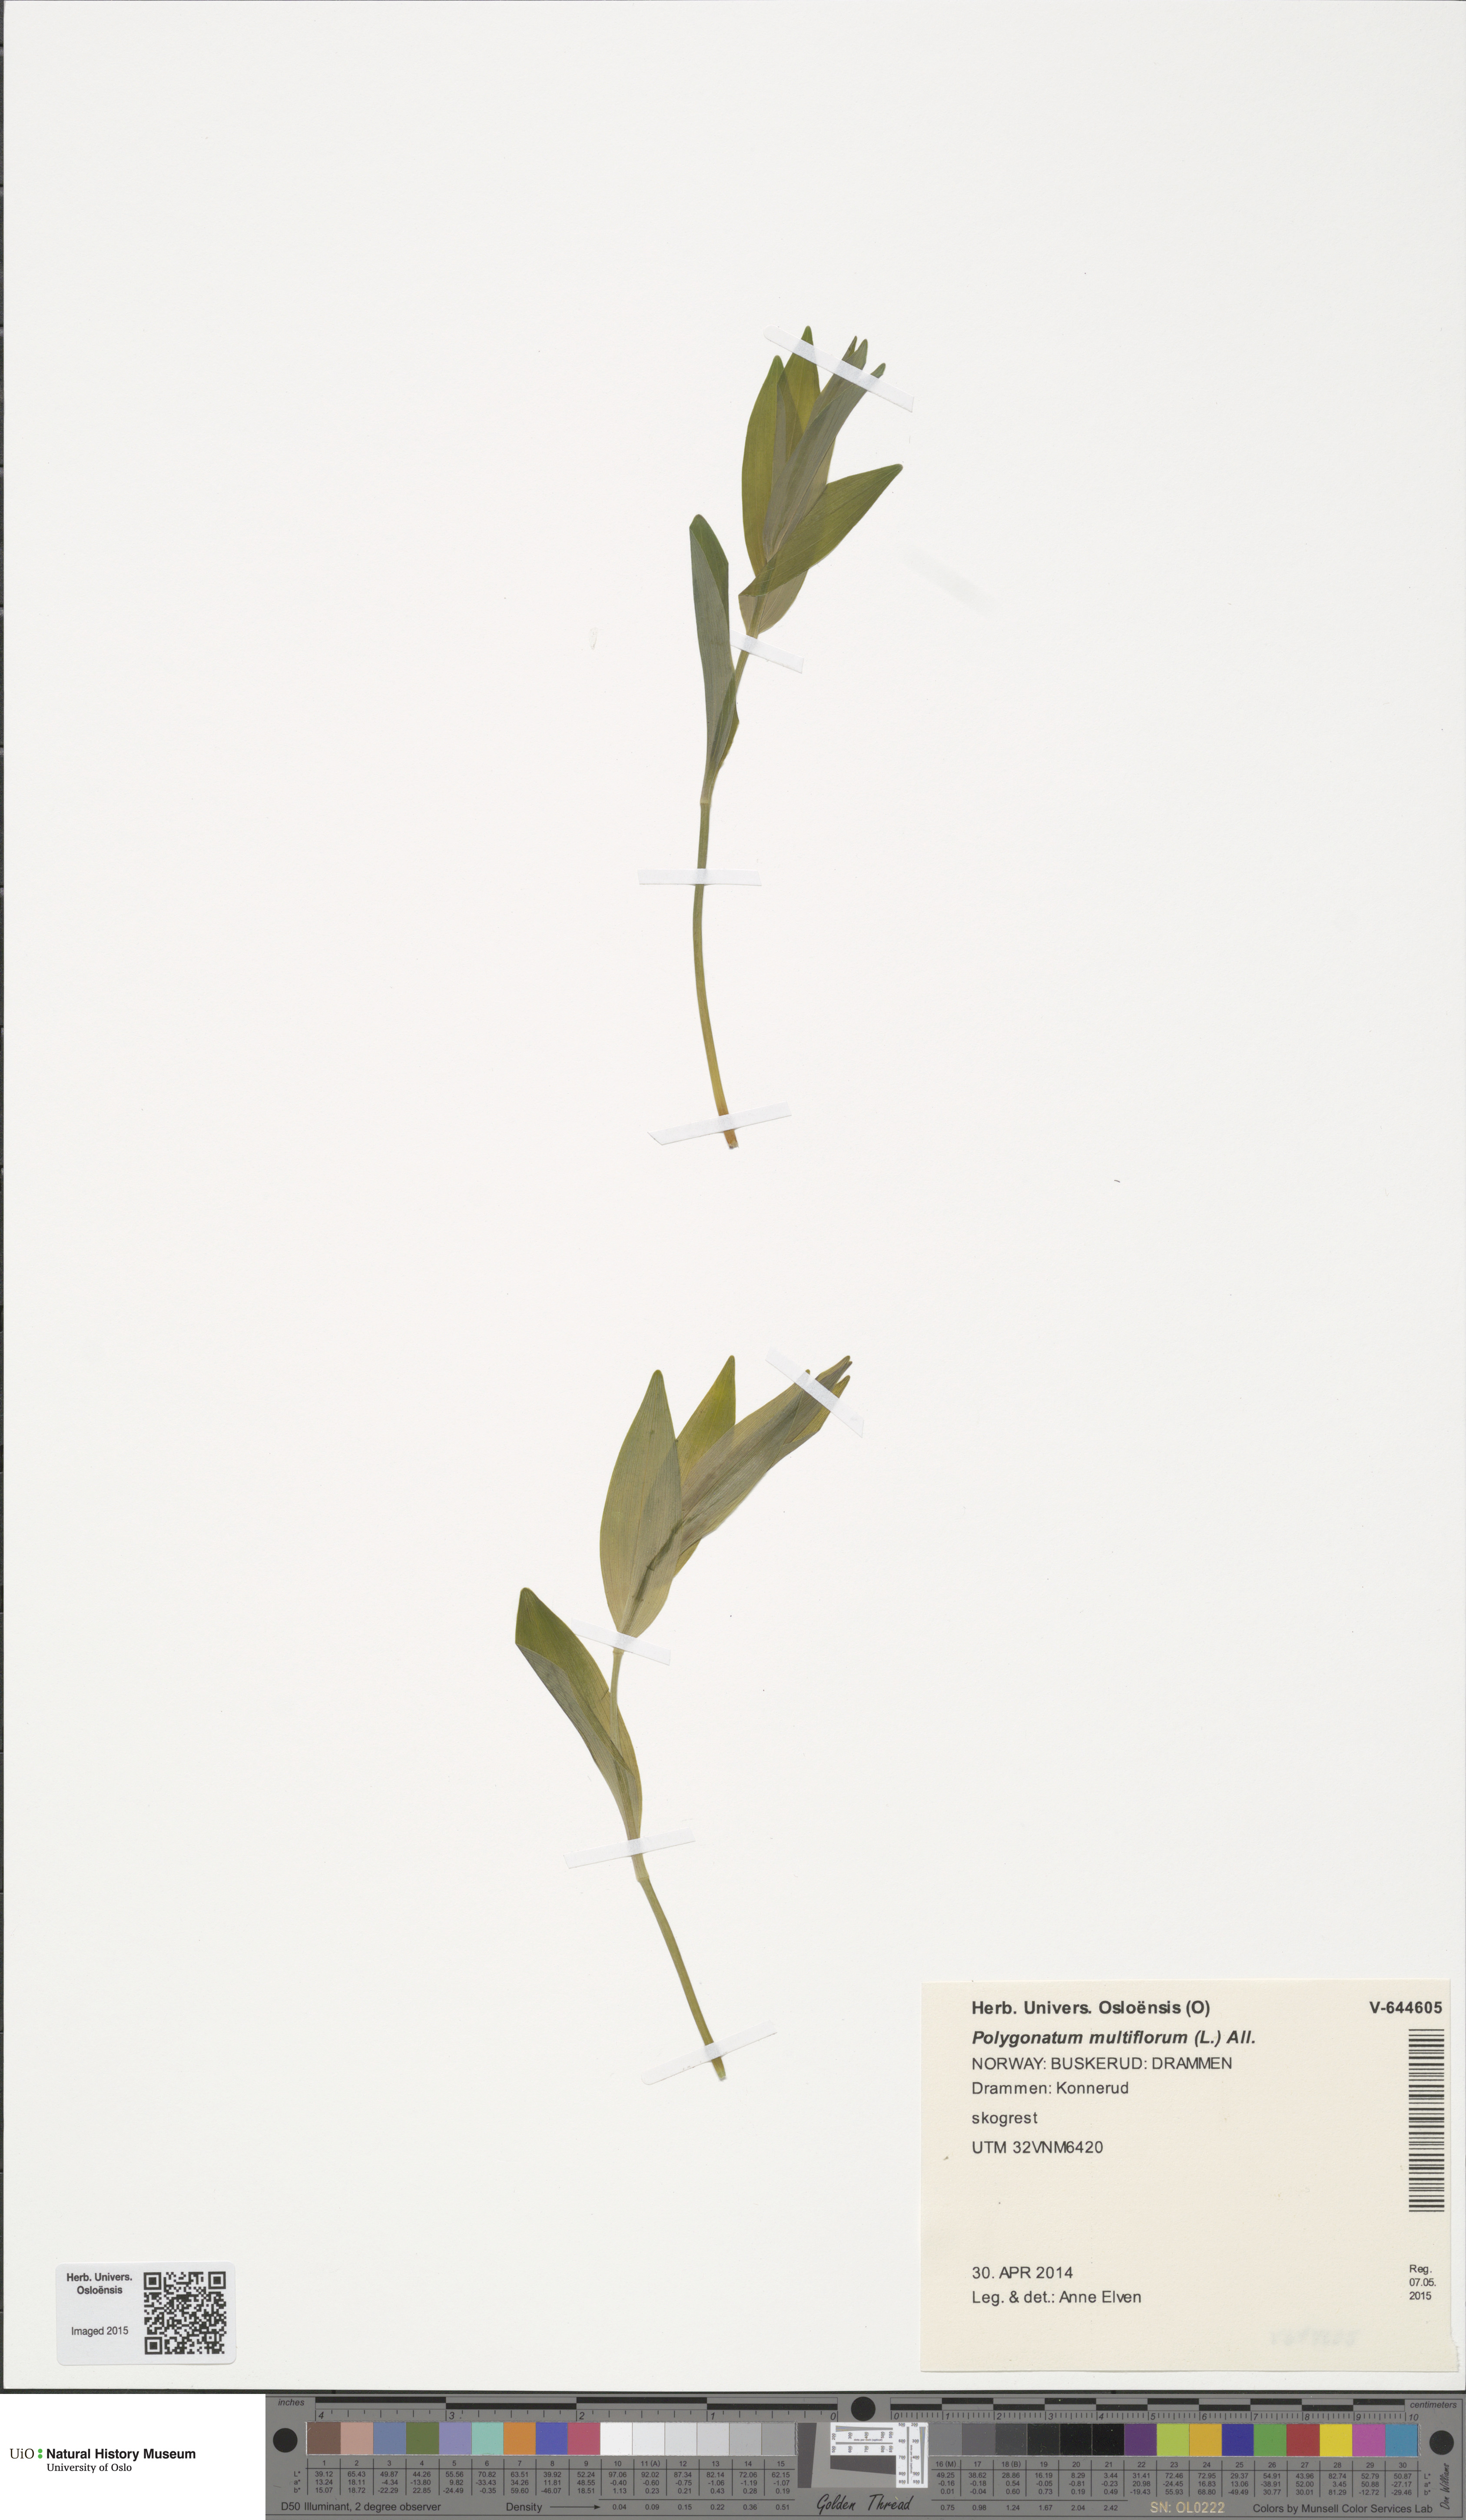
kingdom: Plantae
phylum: Tracheophyta
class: Liliopsida
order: Asparagales
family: Asparagaceae
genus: Polygonatum
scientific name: Polygonatum multiflorum
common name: Solomon's-seal
